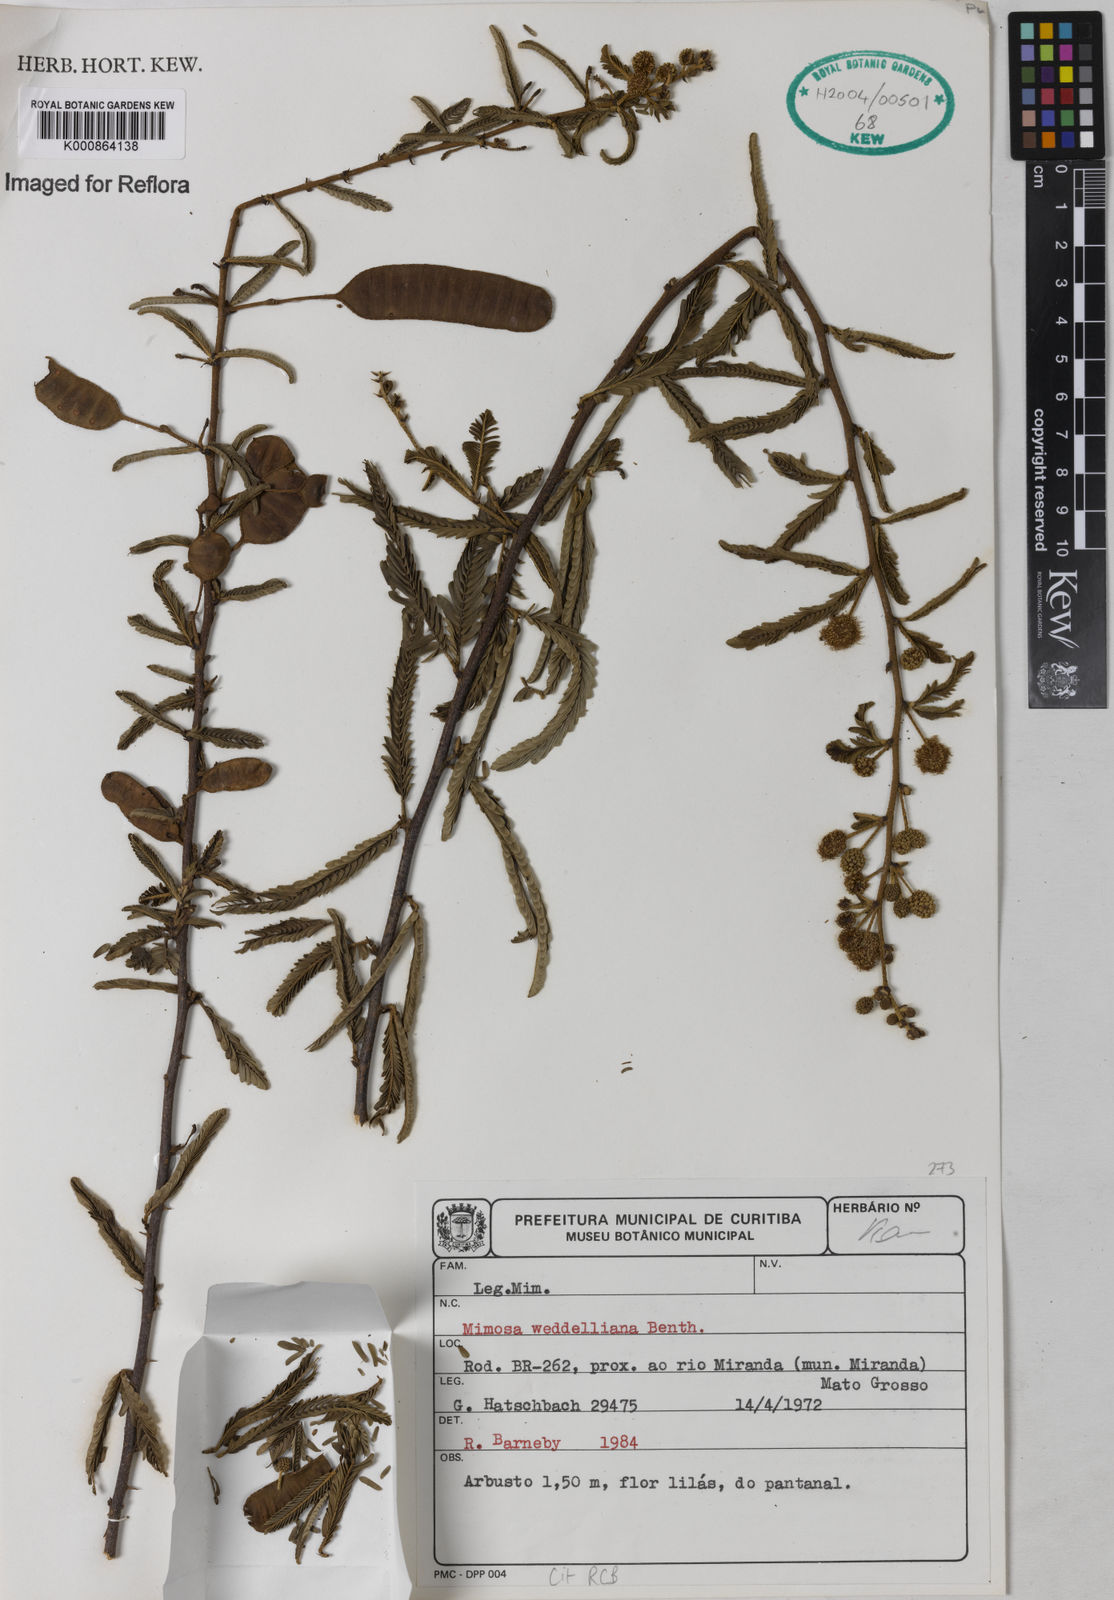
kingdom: Plantae
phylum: Tracheophyta
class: Magnoliopsida
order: Fabales
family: Fabaceae
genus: Mimosa
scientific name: Mimosa weddelliana
